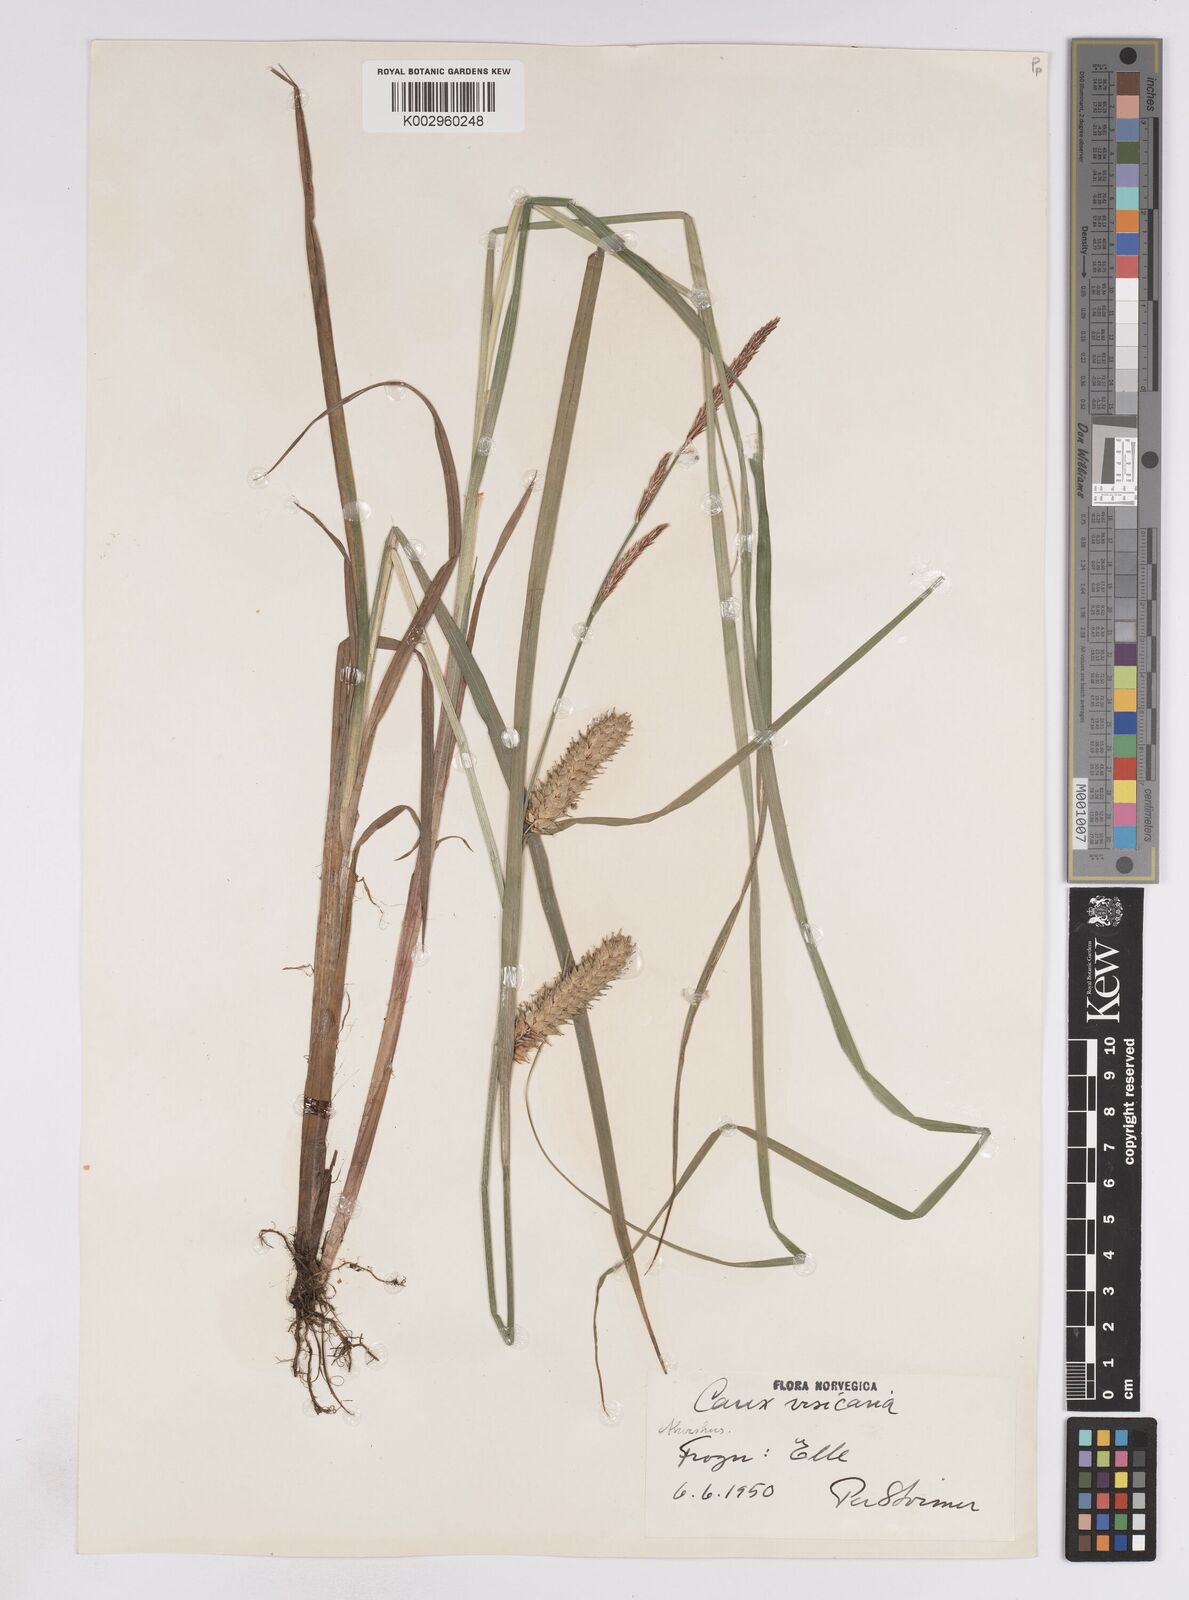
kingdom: Plantae
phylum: Tracheophyta
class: Liliopsida
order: Poales
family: Cyperaceae
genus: Carex
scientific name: Carex vesicaria
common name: Bladder-sedge
